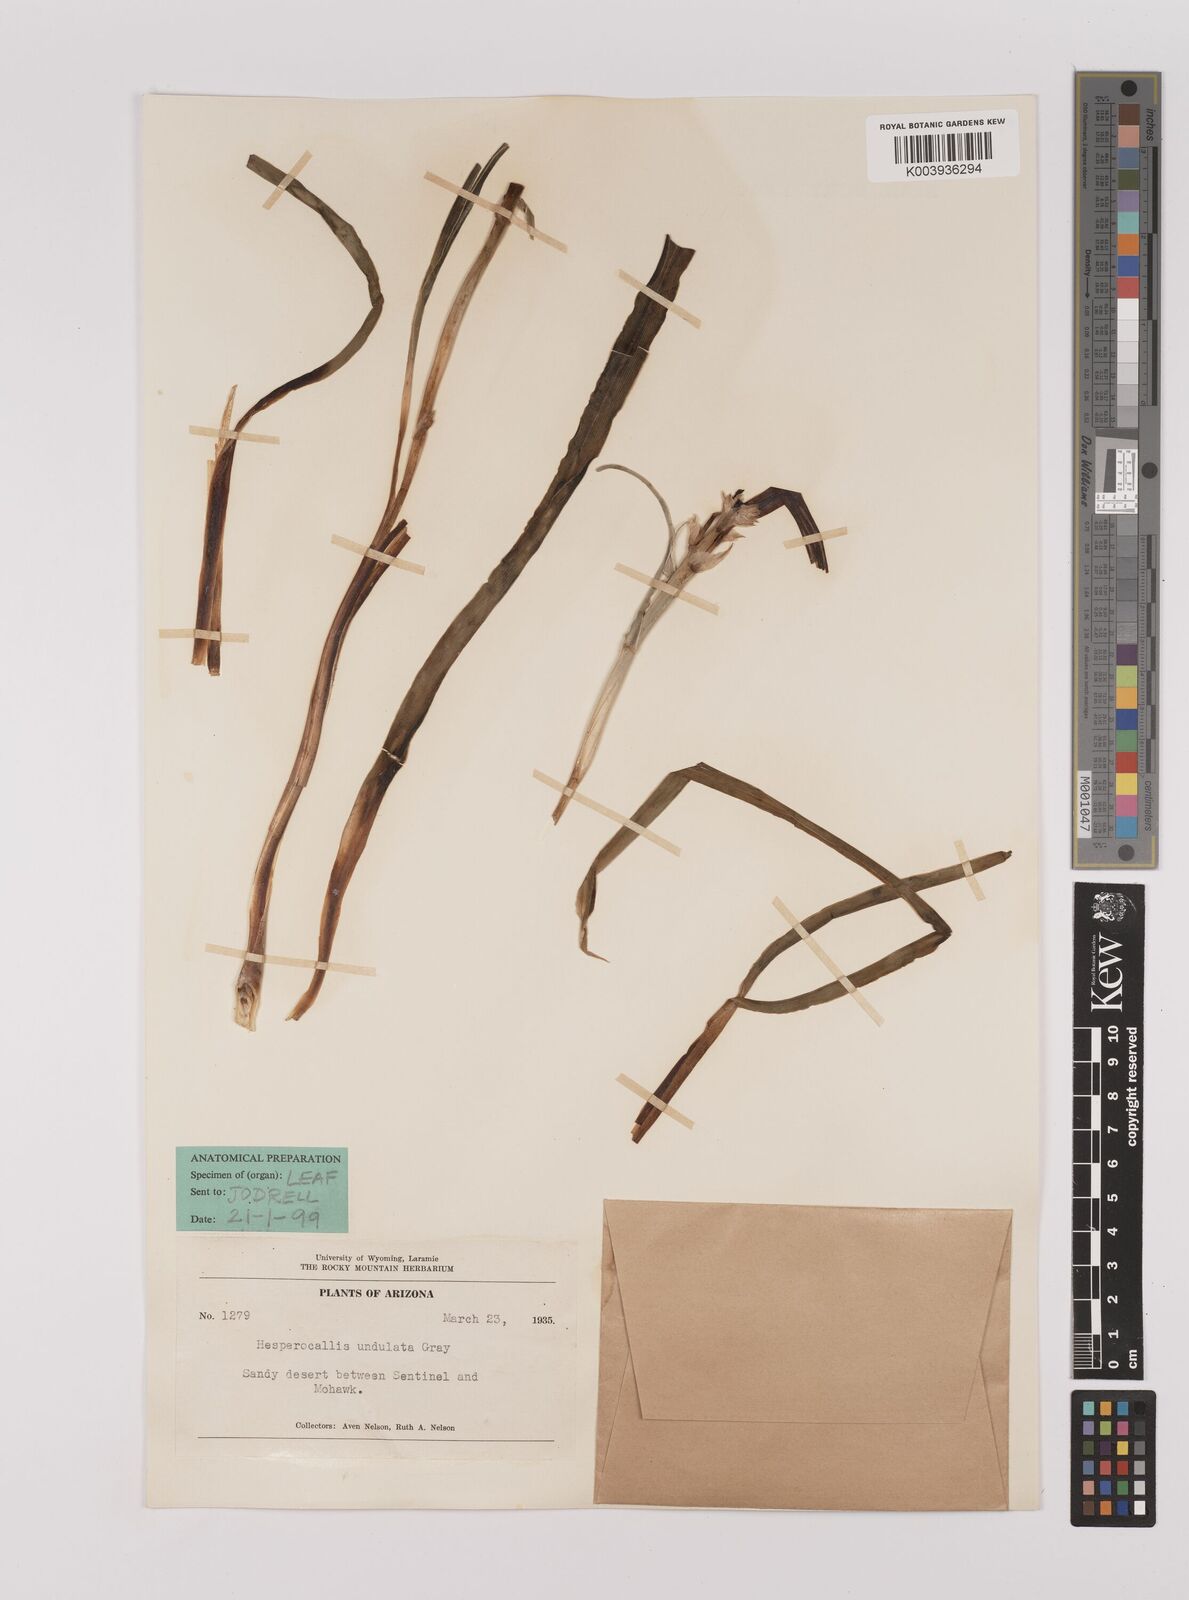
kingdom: Plantae
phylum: Tracheophyta
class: Liliopsida
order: Asparagales
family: Asparagaceae
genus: Hesperocallis
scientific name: Hesperocallis
